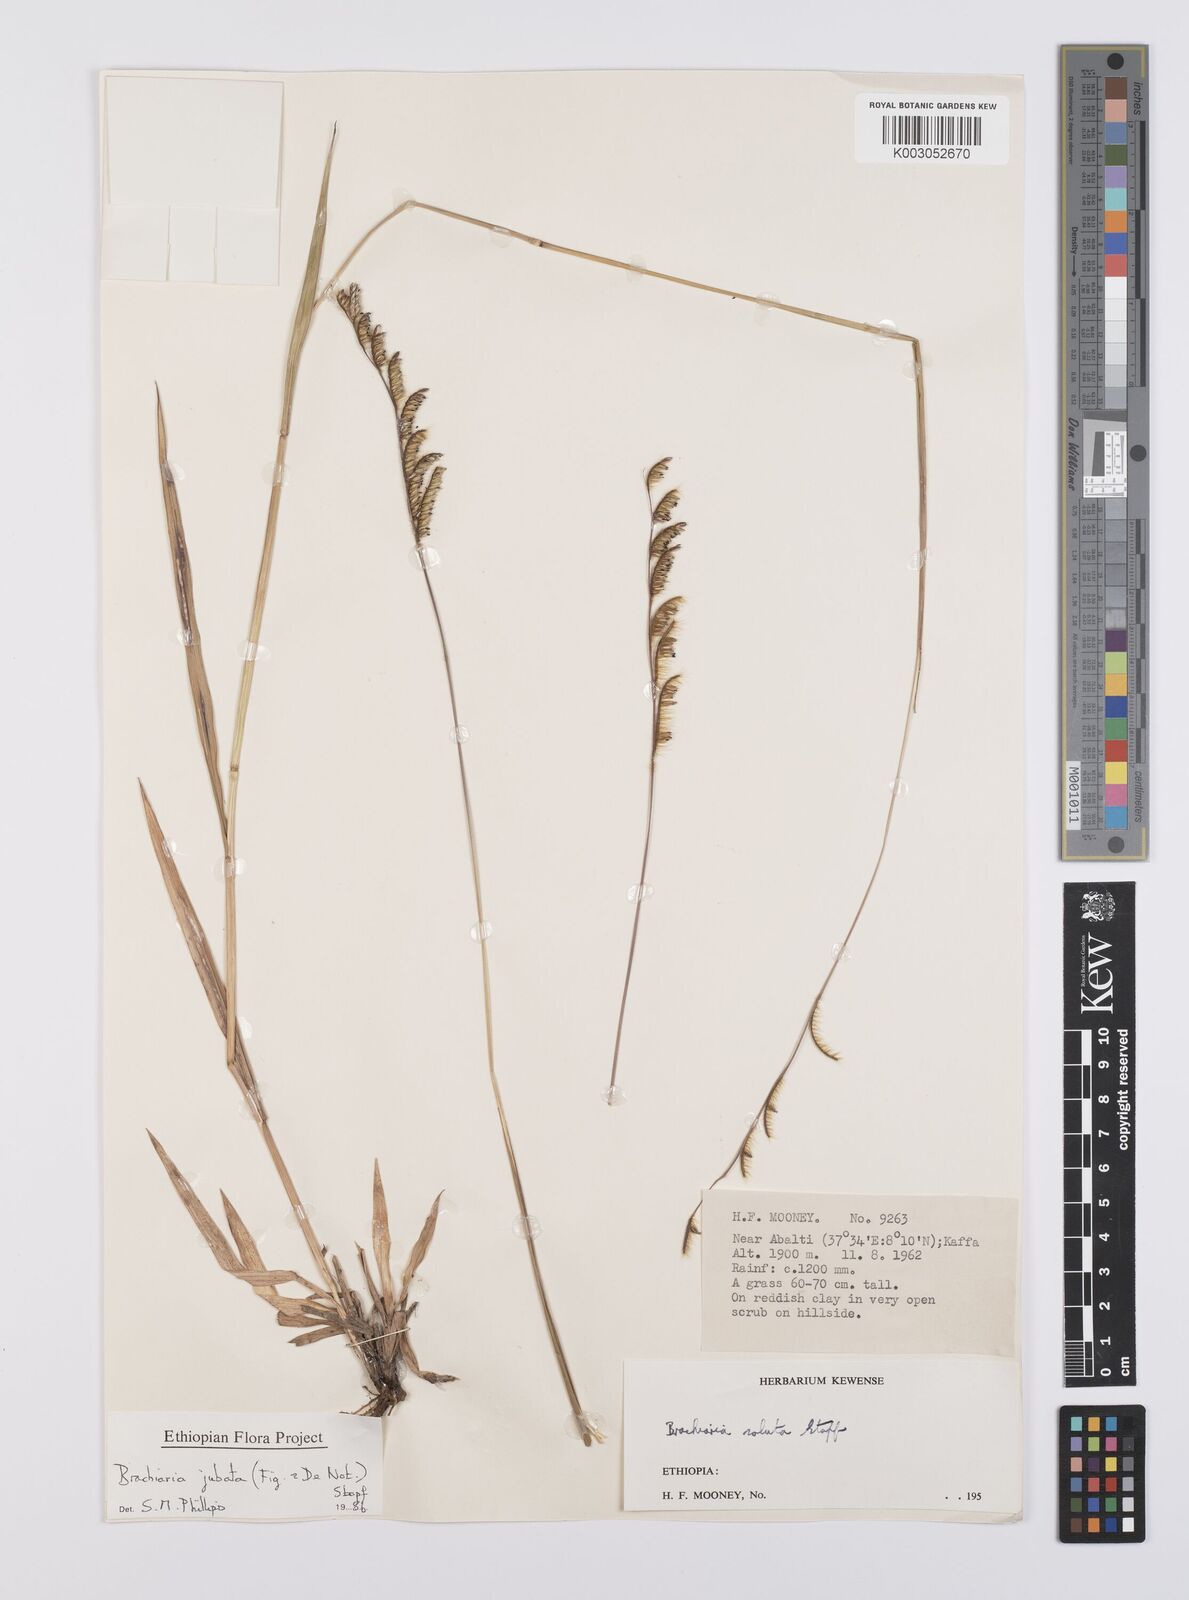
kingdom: Plantae
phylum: Tracheophyta
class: Liliopsida
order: Poales
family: Poaceae
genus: Urochloa
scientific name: Urochloa jubata
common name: Buffalograss
